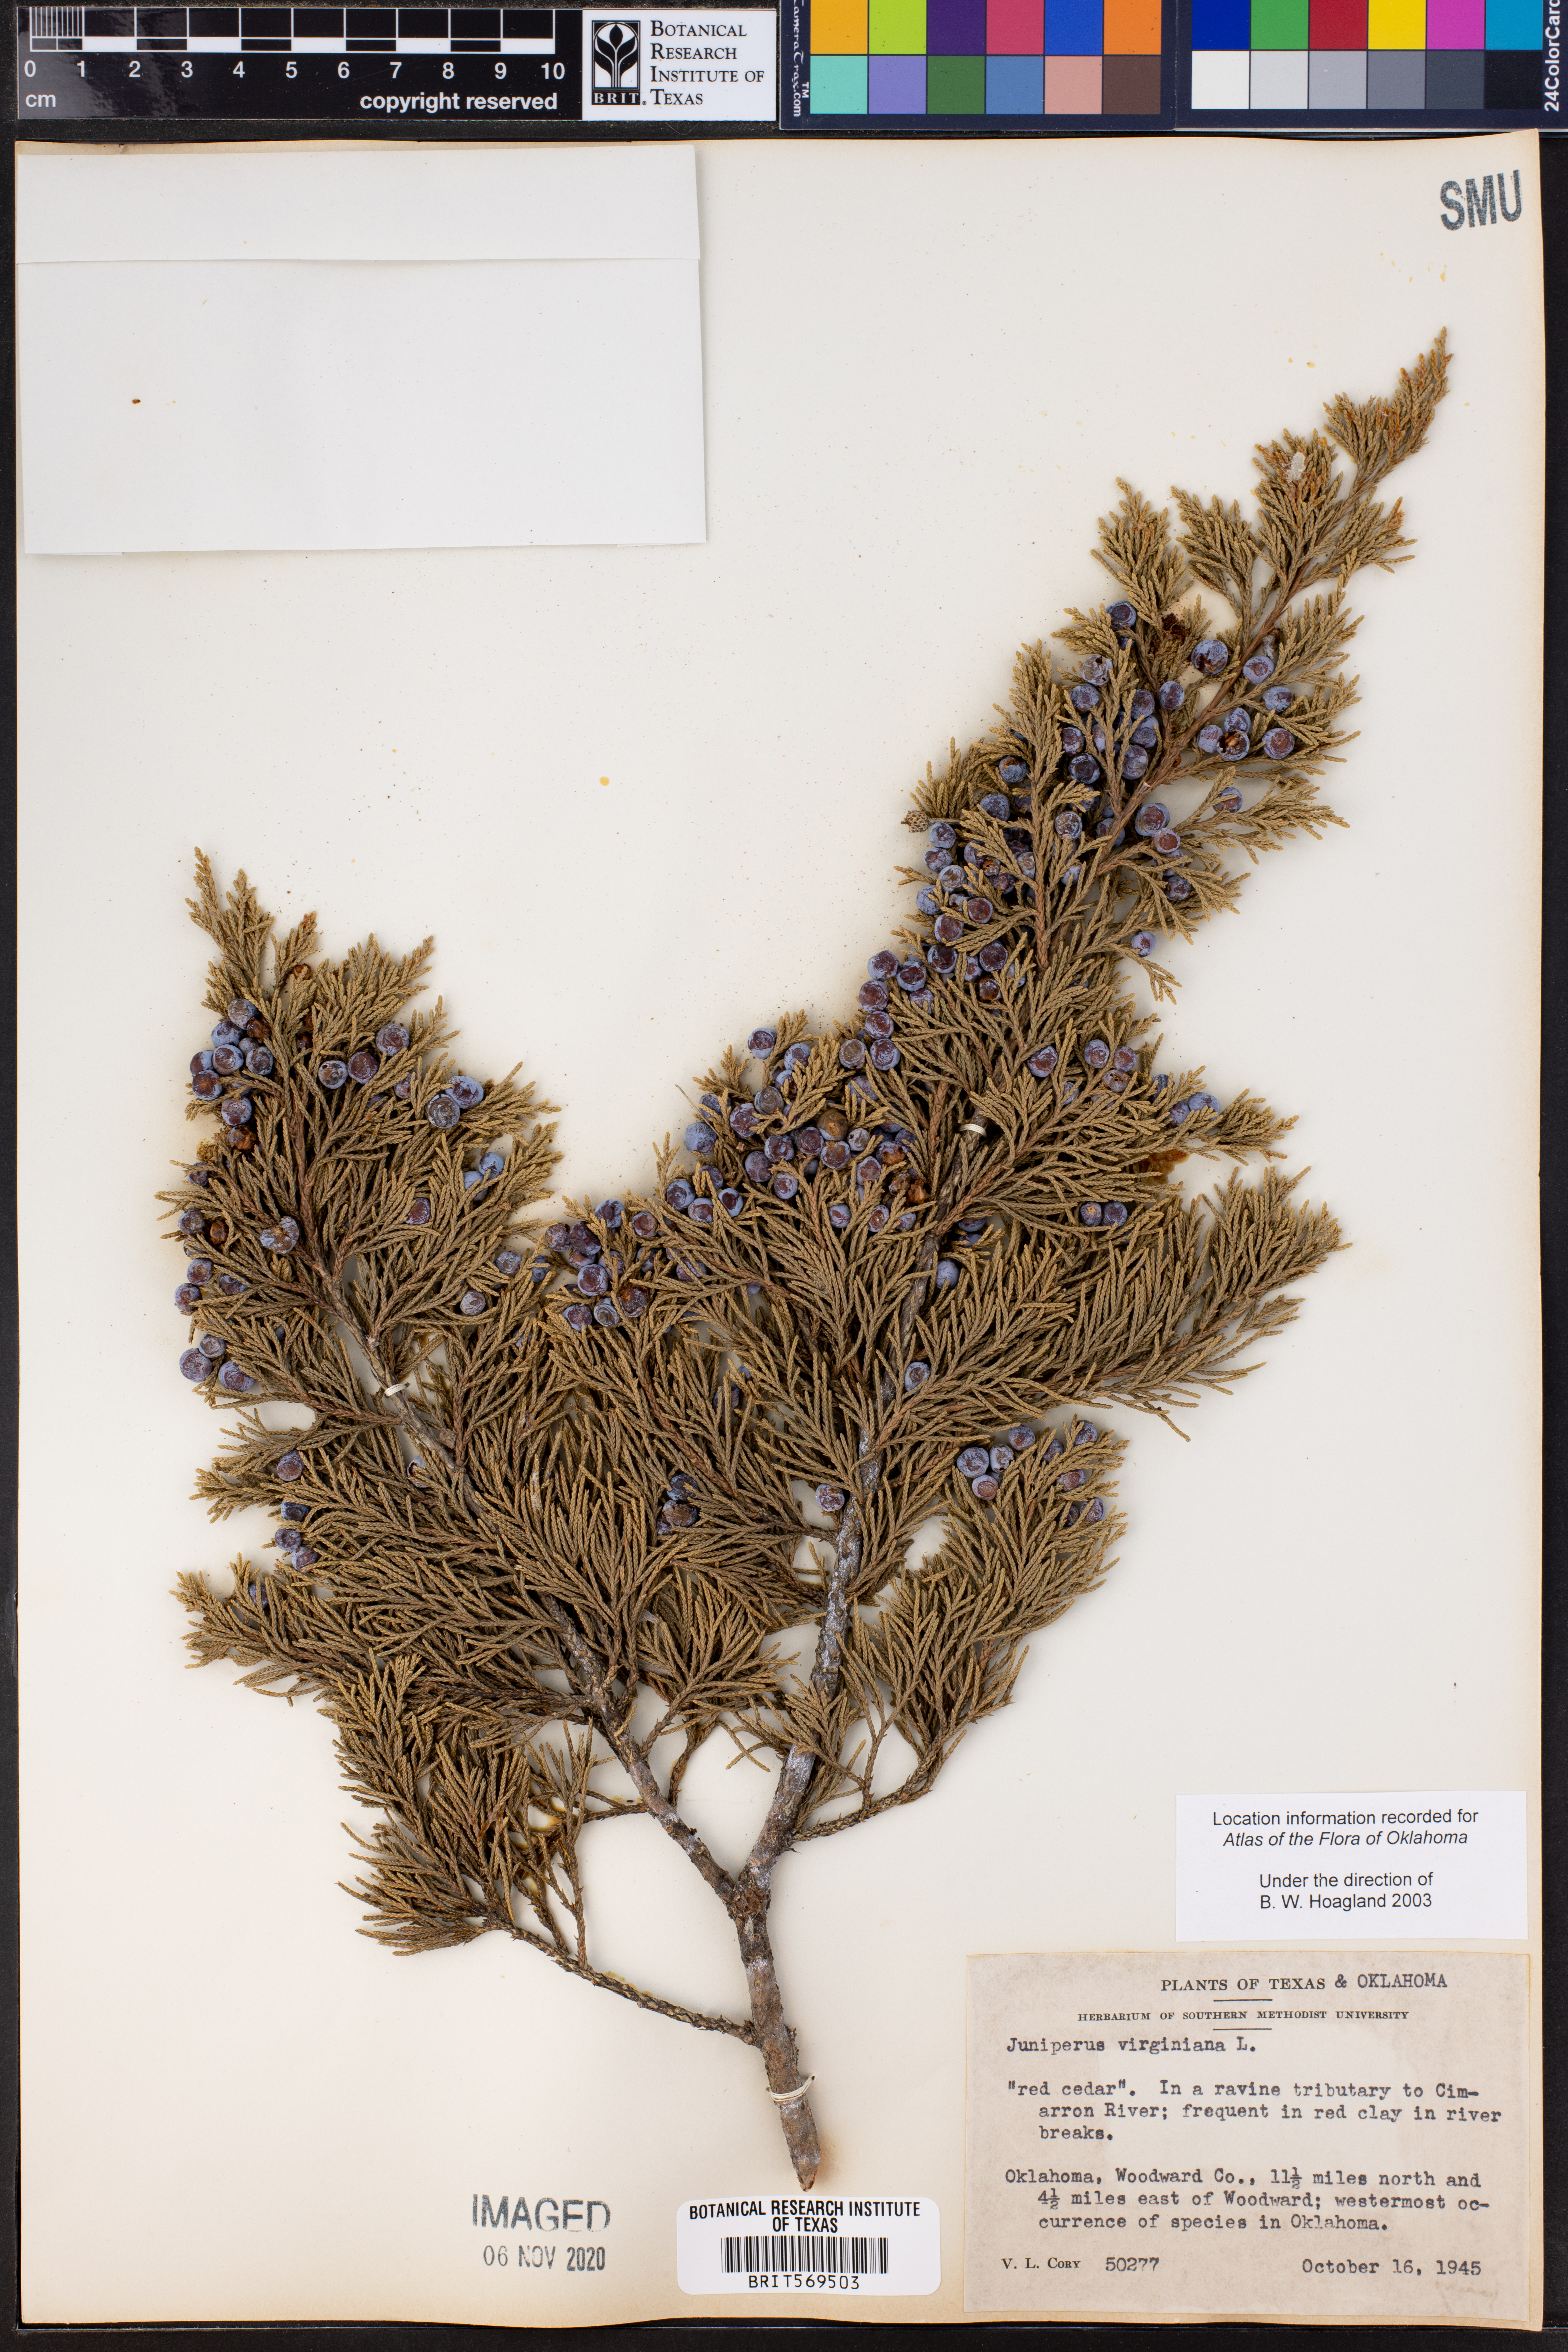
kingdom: Plantae
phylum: Tracheophyta
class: Pinopsida
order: Pinales
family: Cupressaceae
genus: Juniperus
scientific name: Juniperus virginiana
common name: Red juniper
